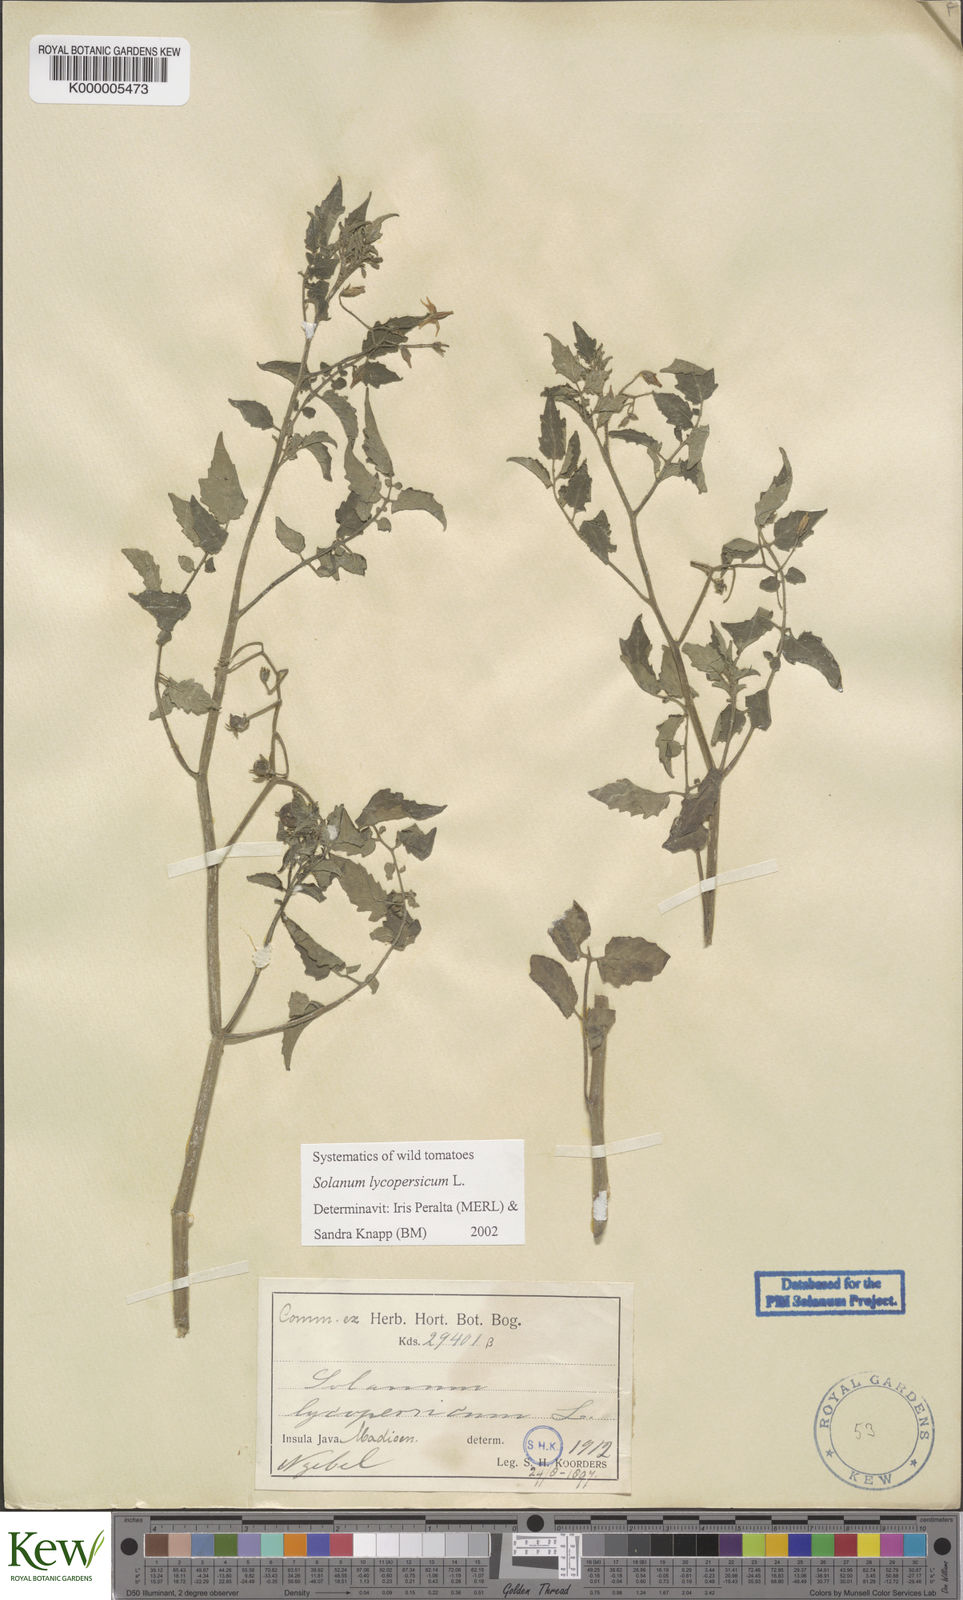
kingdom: Plantae
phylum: Tracheophyta
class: Magnoliopsida
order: Solanales
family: Solanaceae
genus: Solanum
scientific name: Solanum lycopersicum
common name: Garden tomato
